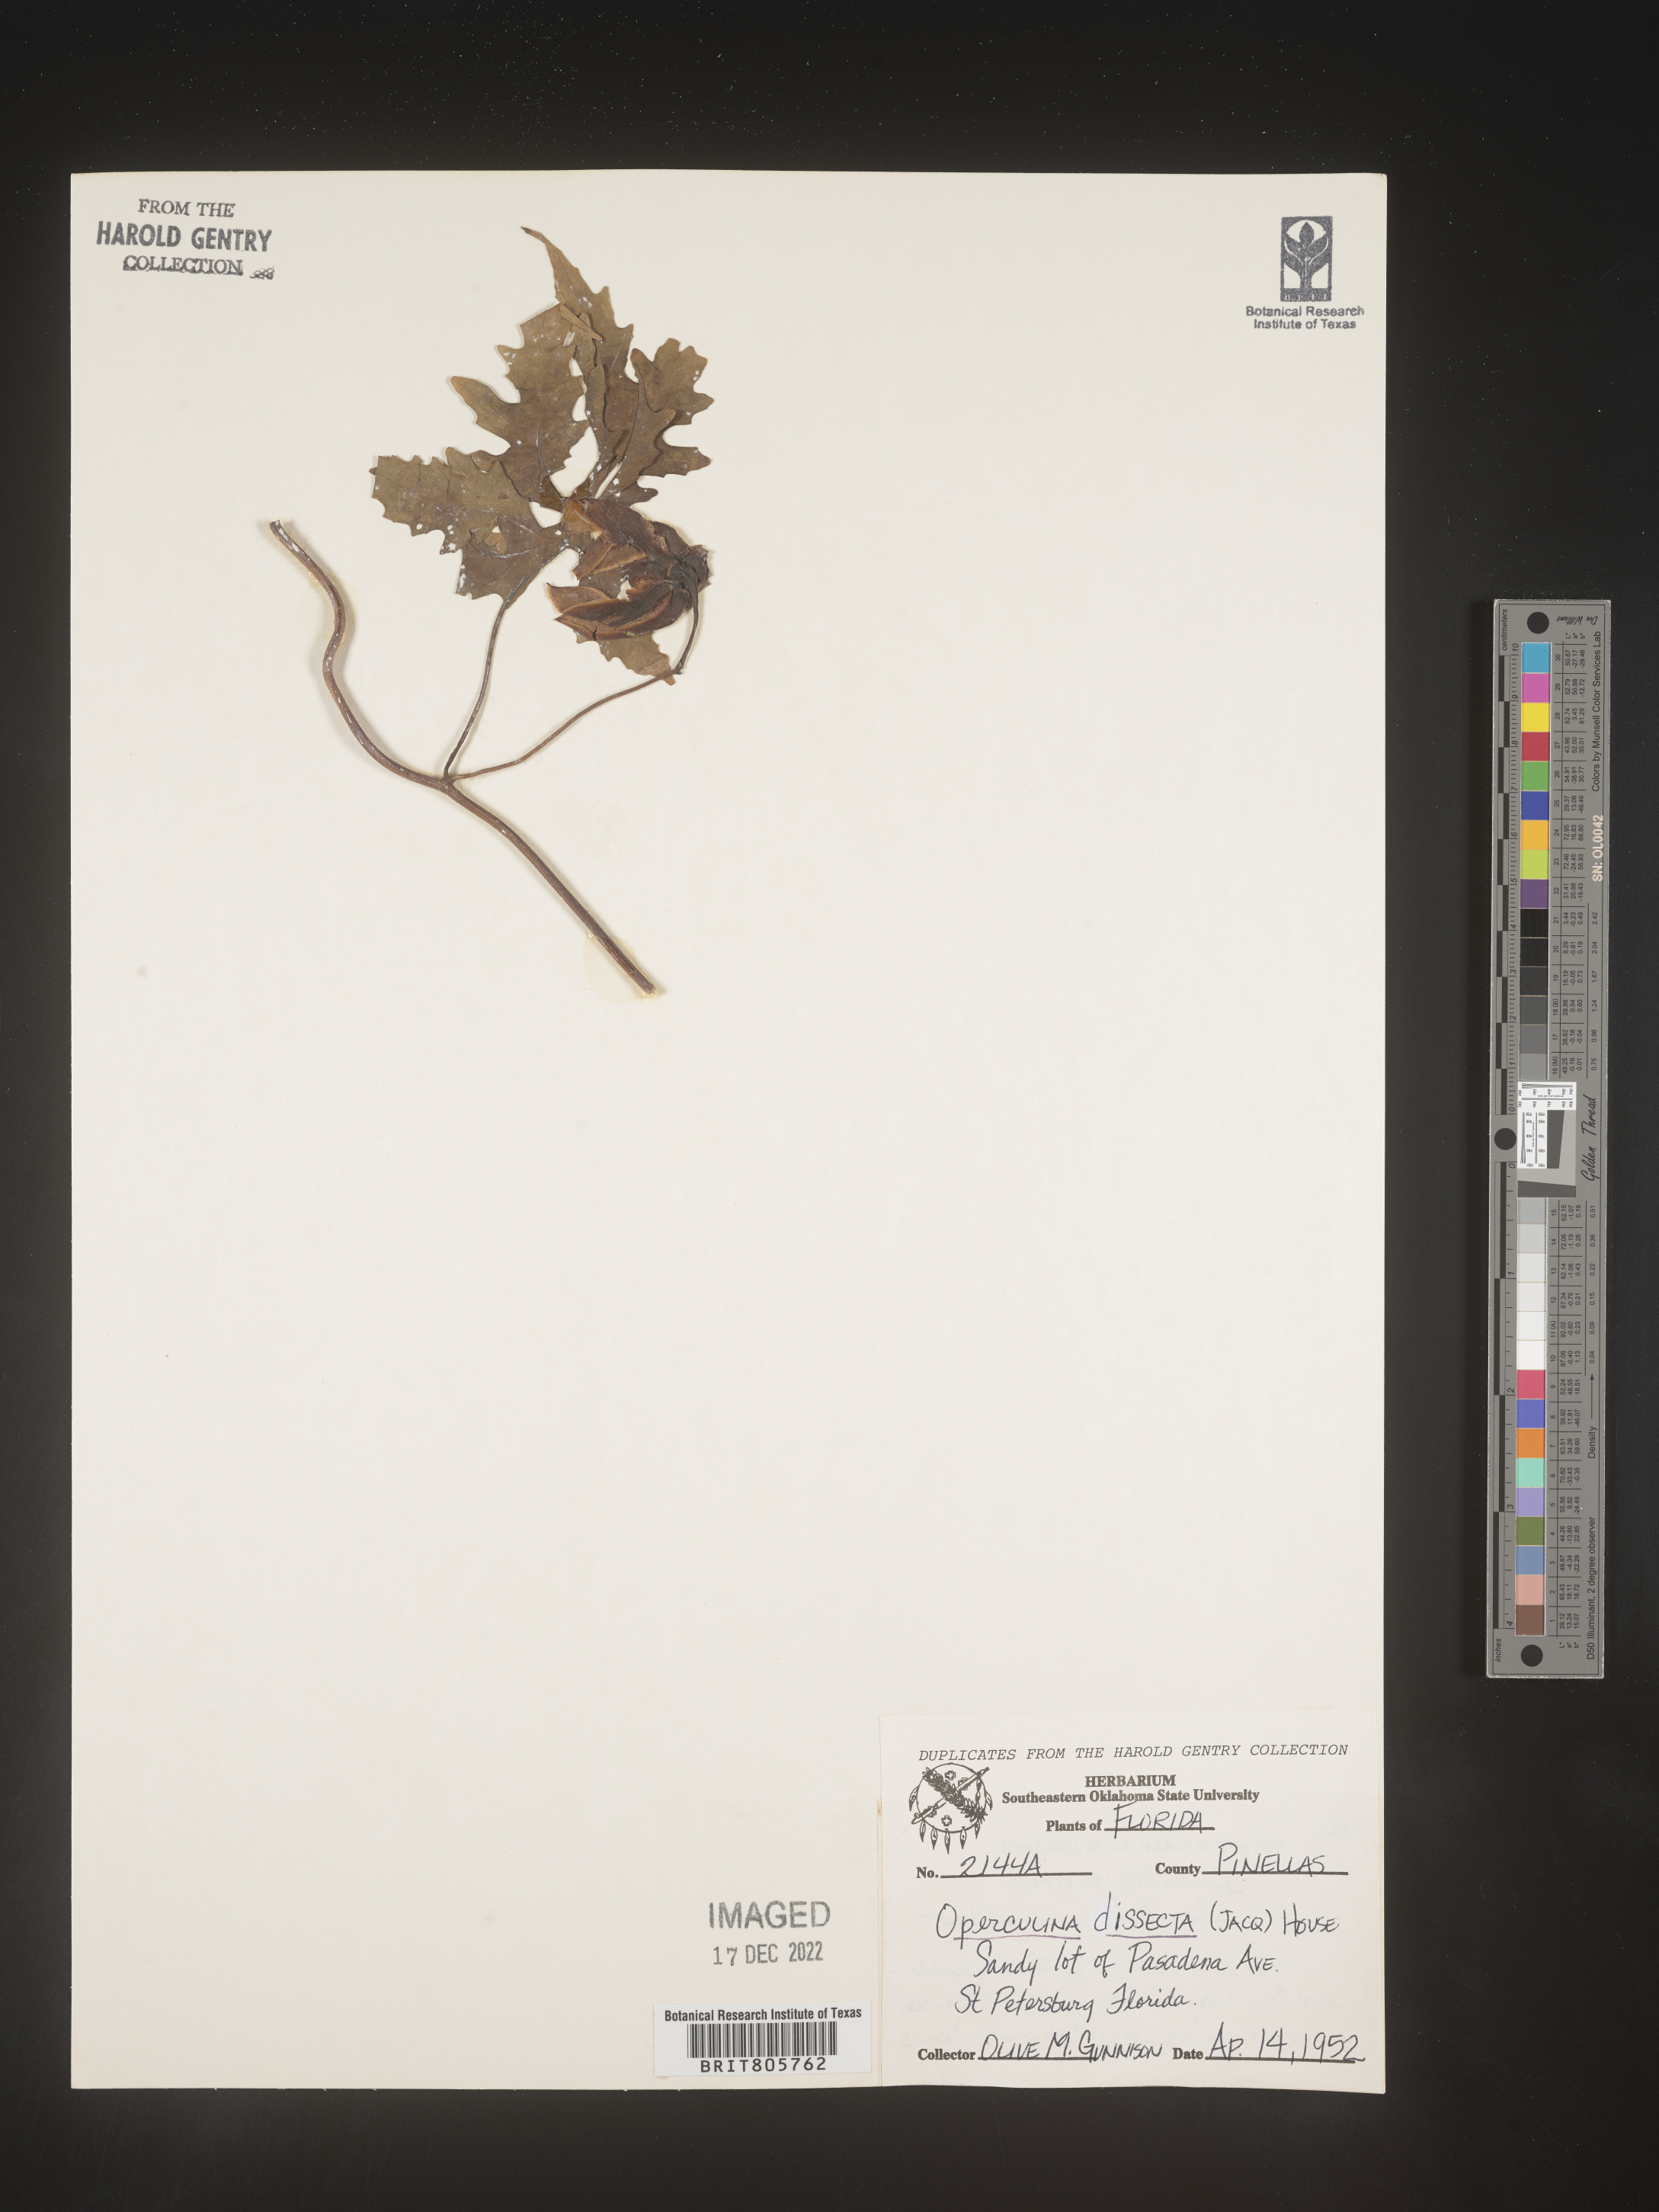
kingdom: Plantae
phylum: Tracheophyta
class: Magnoliopsida
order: Solanales
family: Convolvulaceae
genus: Operculina
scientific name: Operculina
